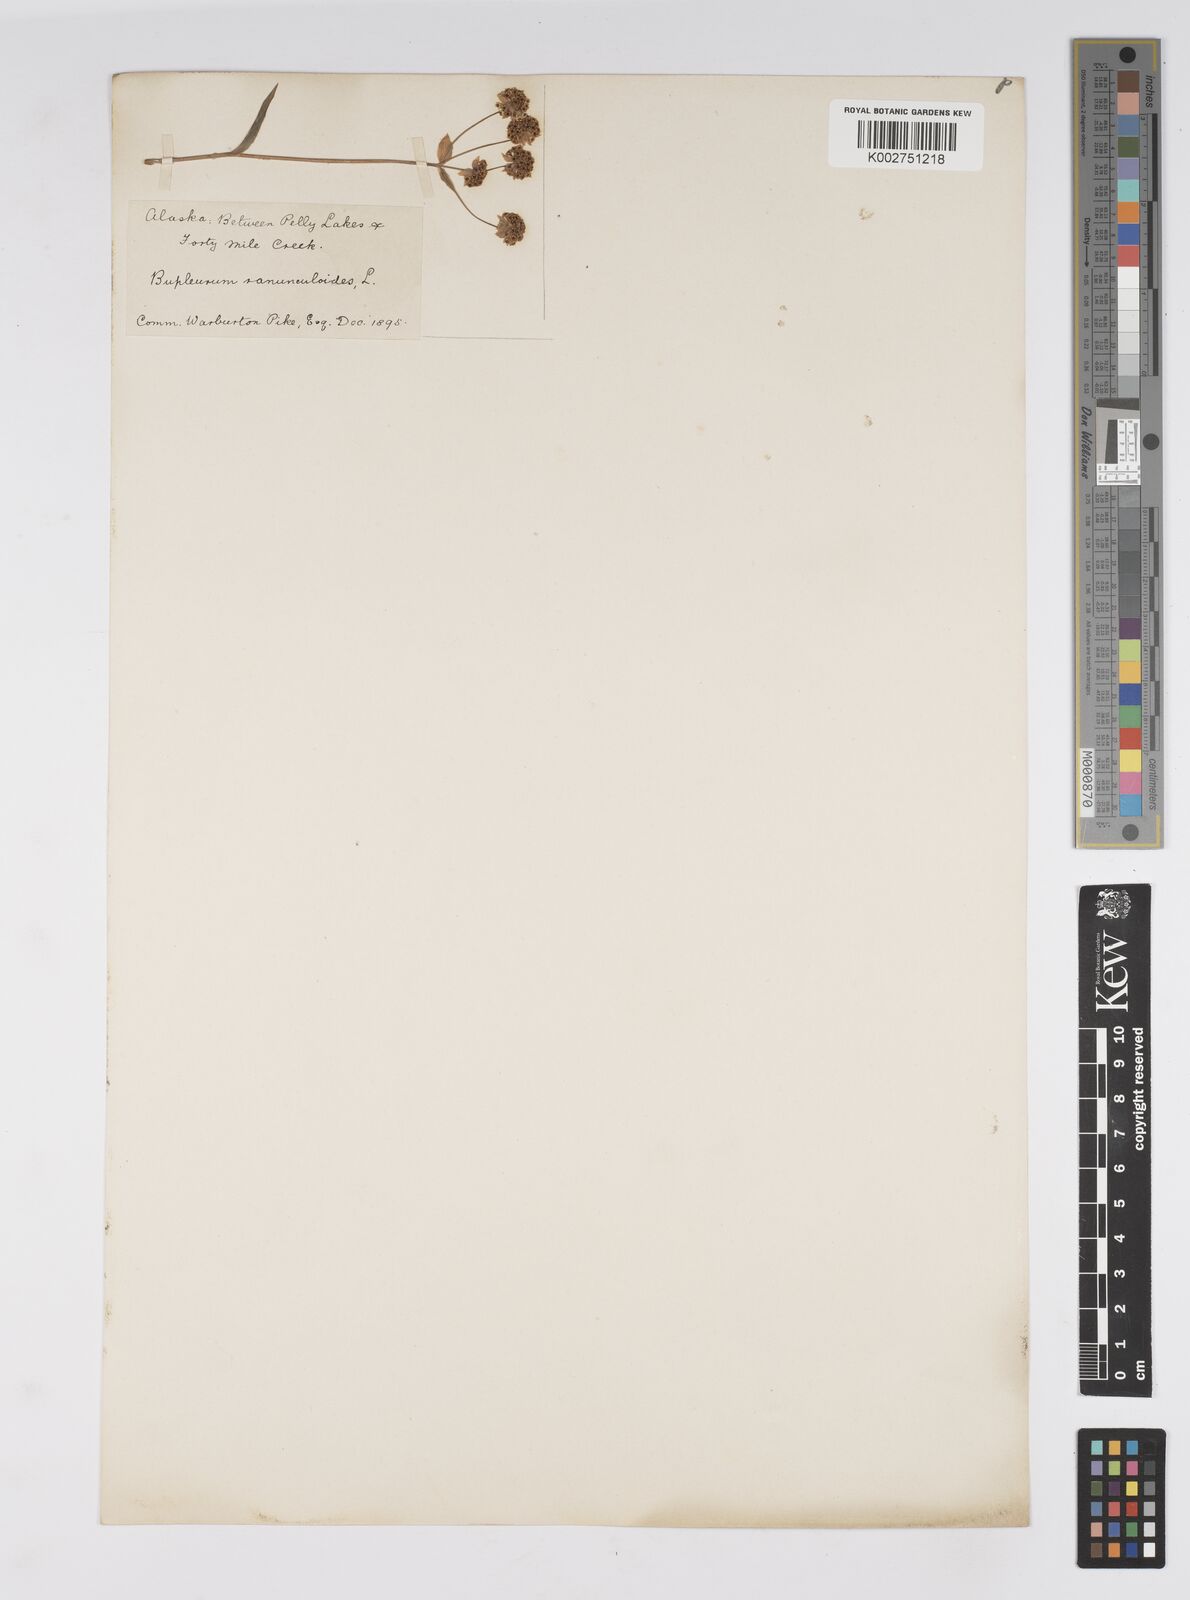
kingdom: Plantae
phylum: Tracheophyta
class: Magnoliopsida
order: Apiales
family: Apiaceae
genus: Bupleurum
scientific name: Bupleurum americanum
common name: American thoroughwax
